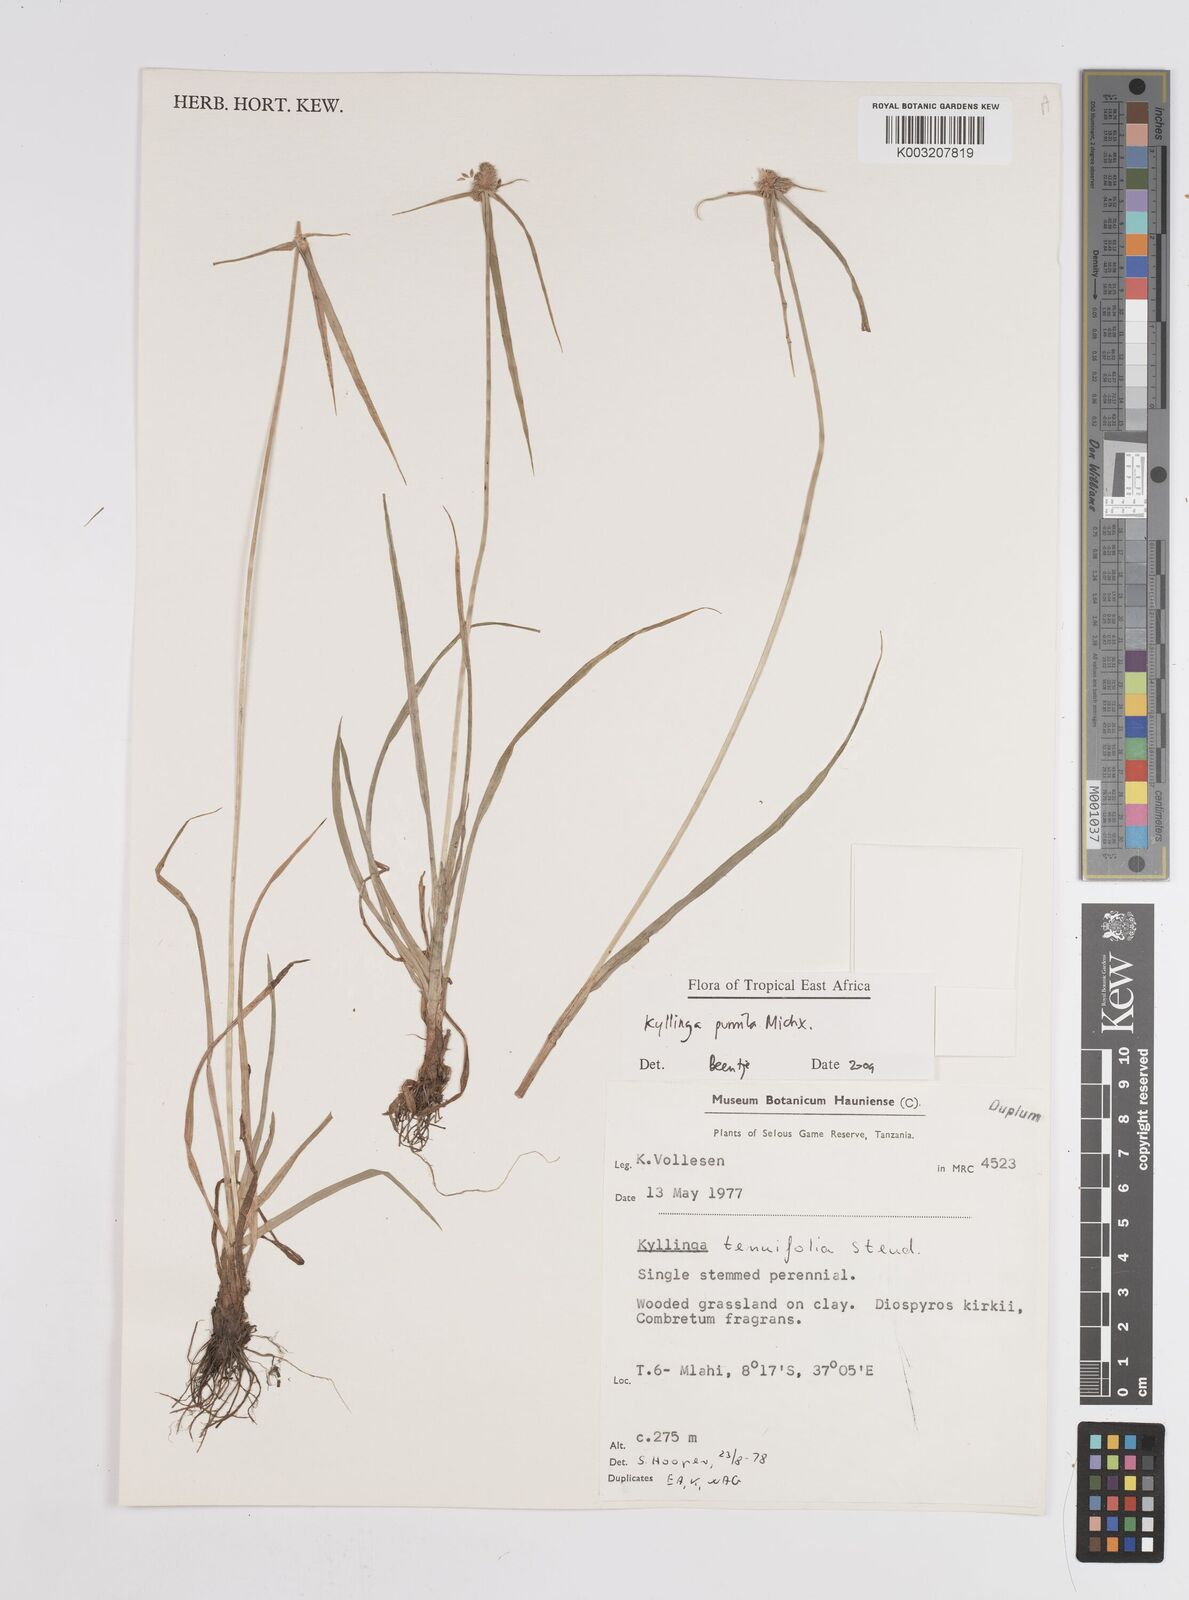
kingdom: Plantae
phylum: Tracheophyta
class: Liliopsida
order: Poales
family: Cyperaceae
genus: Cyperus
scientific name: Cyperus hortensis
